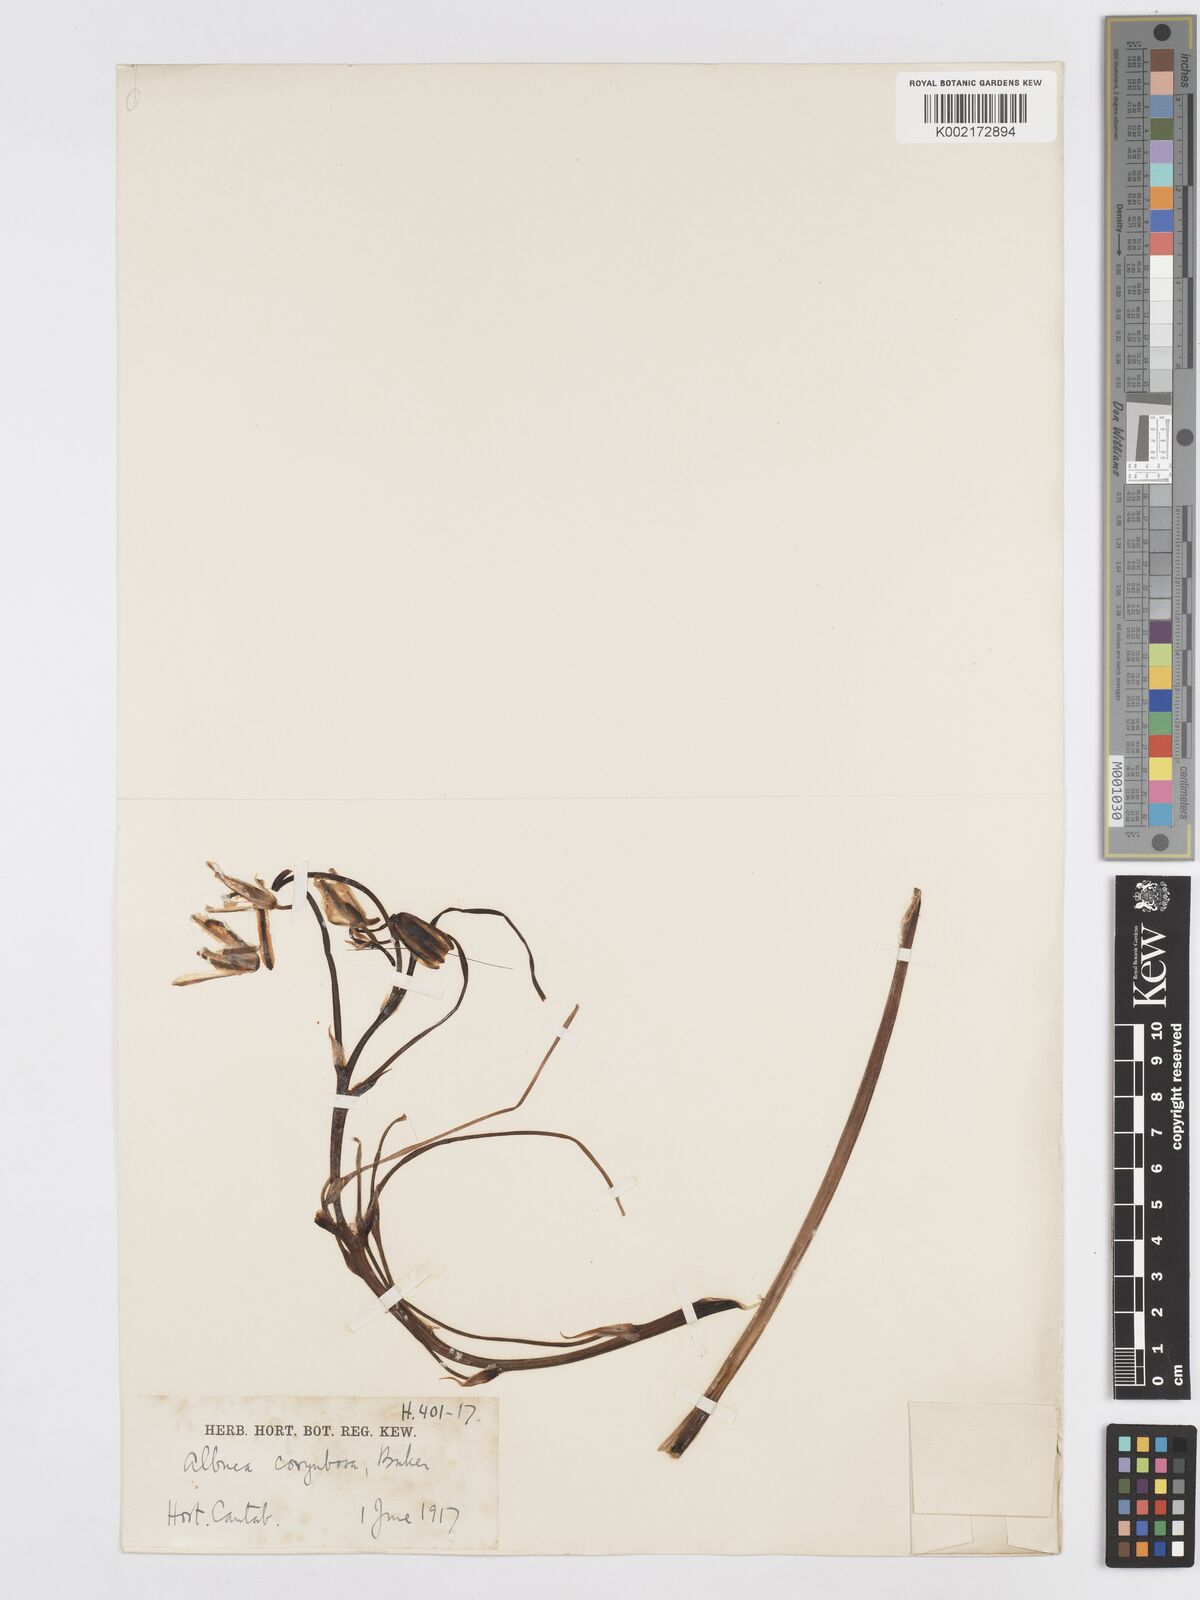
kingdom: Plantae
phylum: Tracheophyta
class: Liliopsida
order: Asparagales
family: Asparagaceae
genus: Albuca
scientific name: Albuca corymbosa
